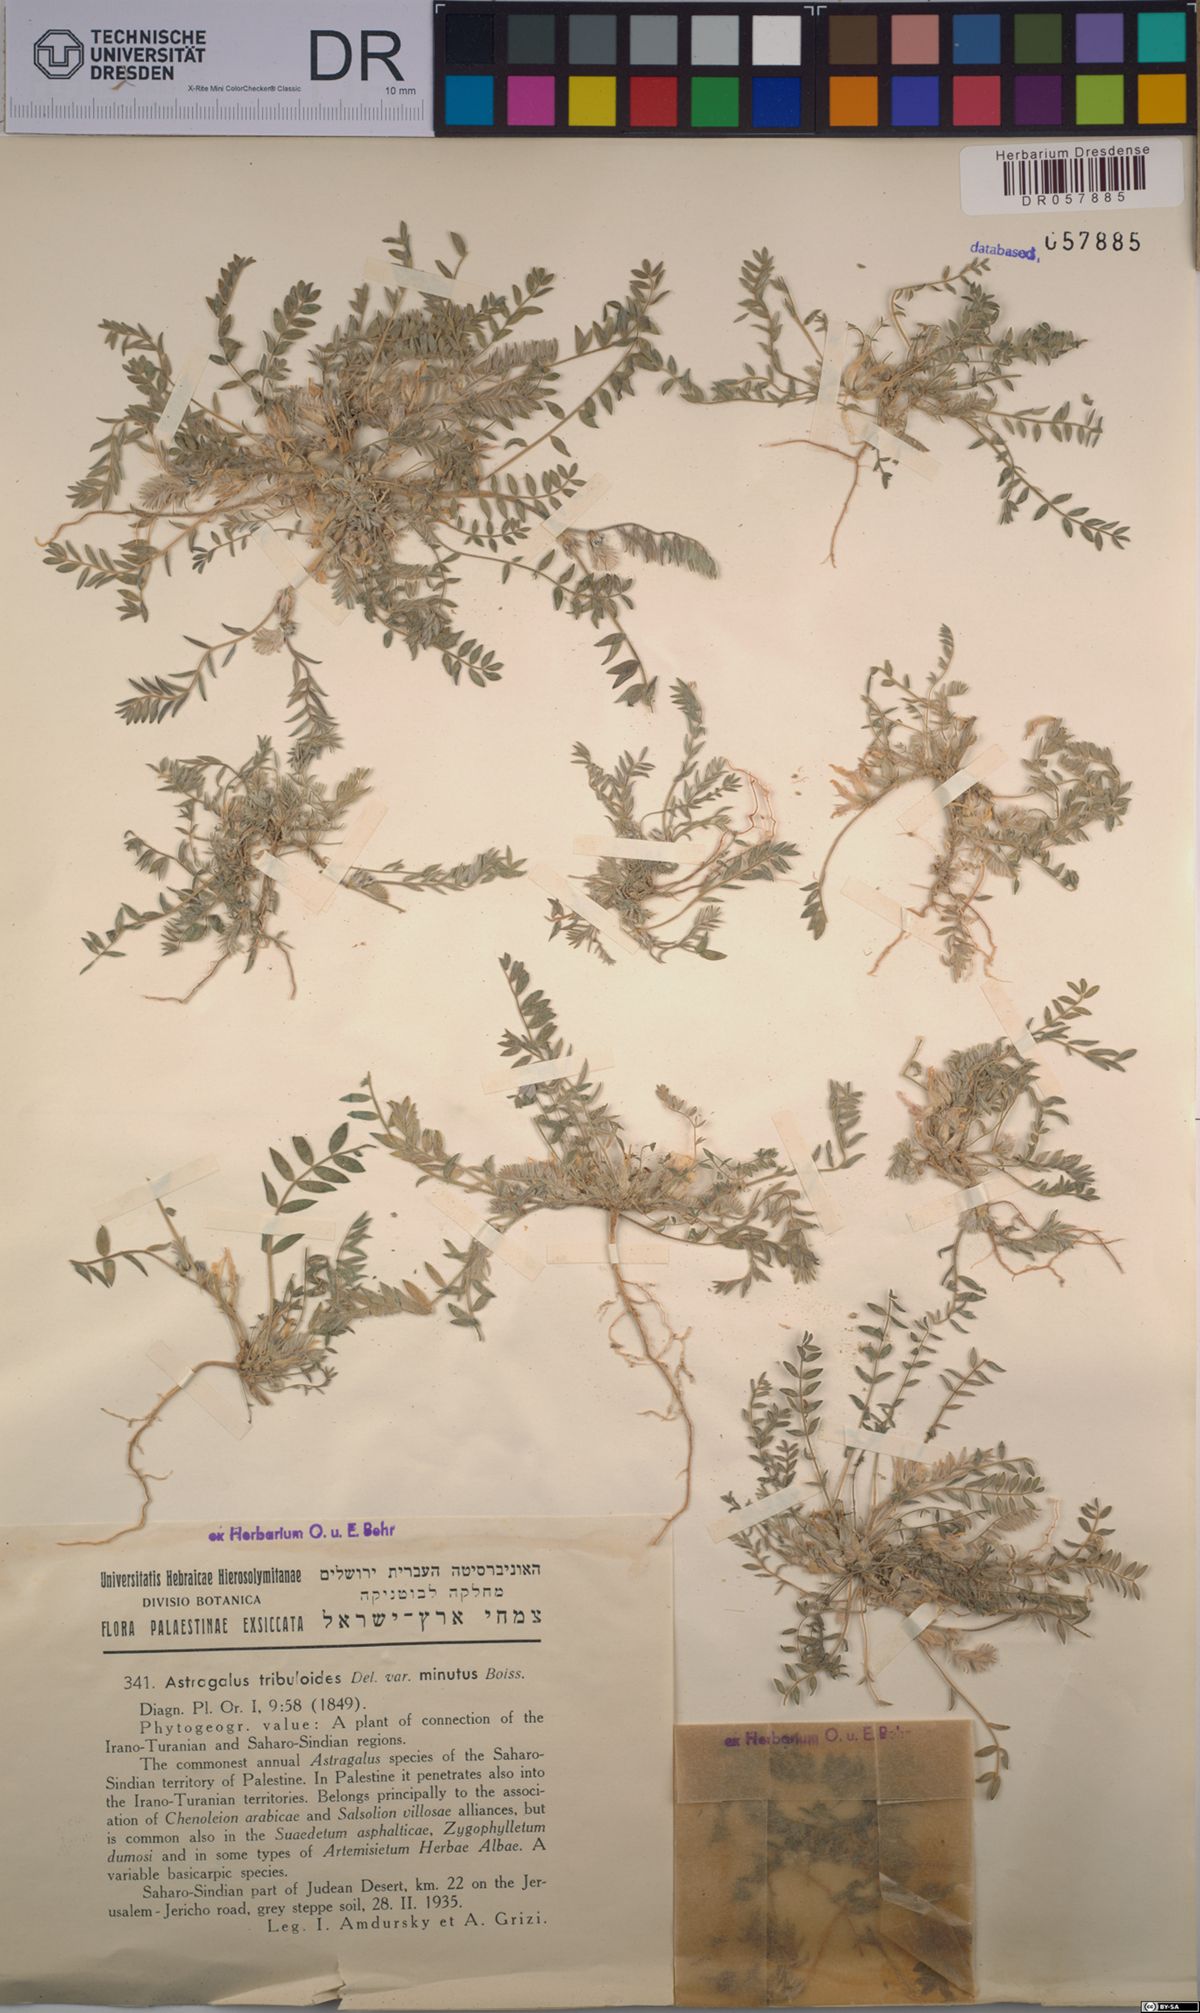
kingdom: Plantae
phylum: Tracheophyta
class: Magnoliopsida
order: Fabales
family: Fabaceae
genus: Astragalus
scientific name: Astragalus tribuloides
